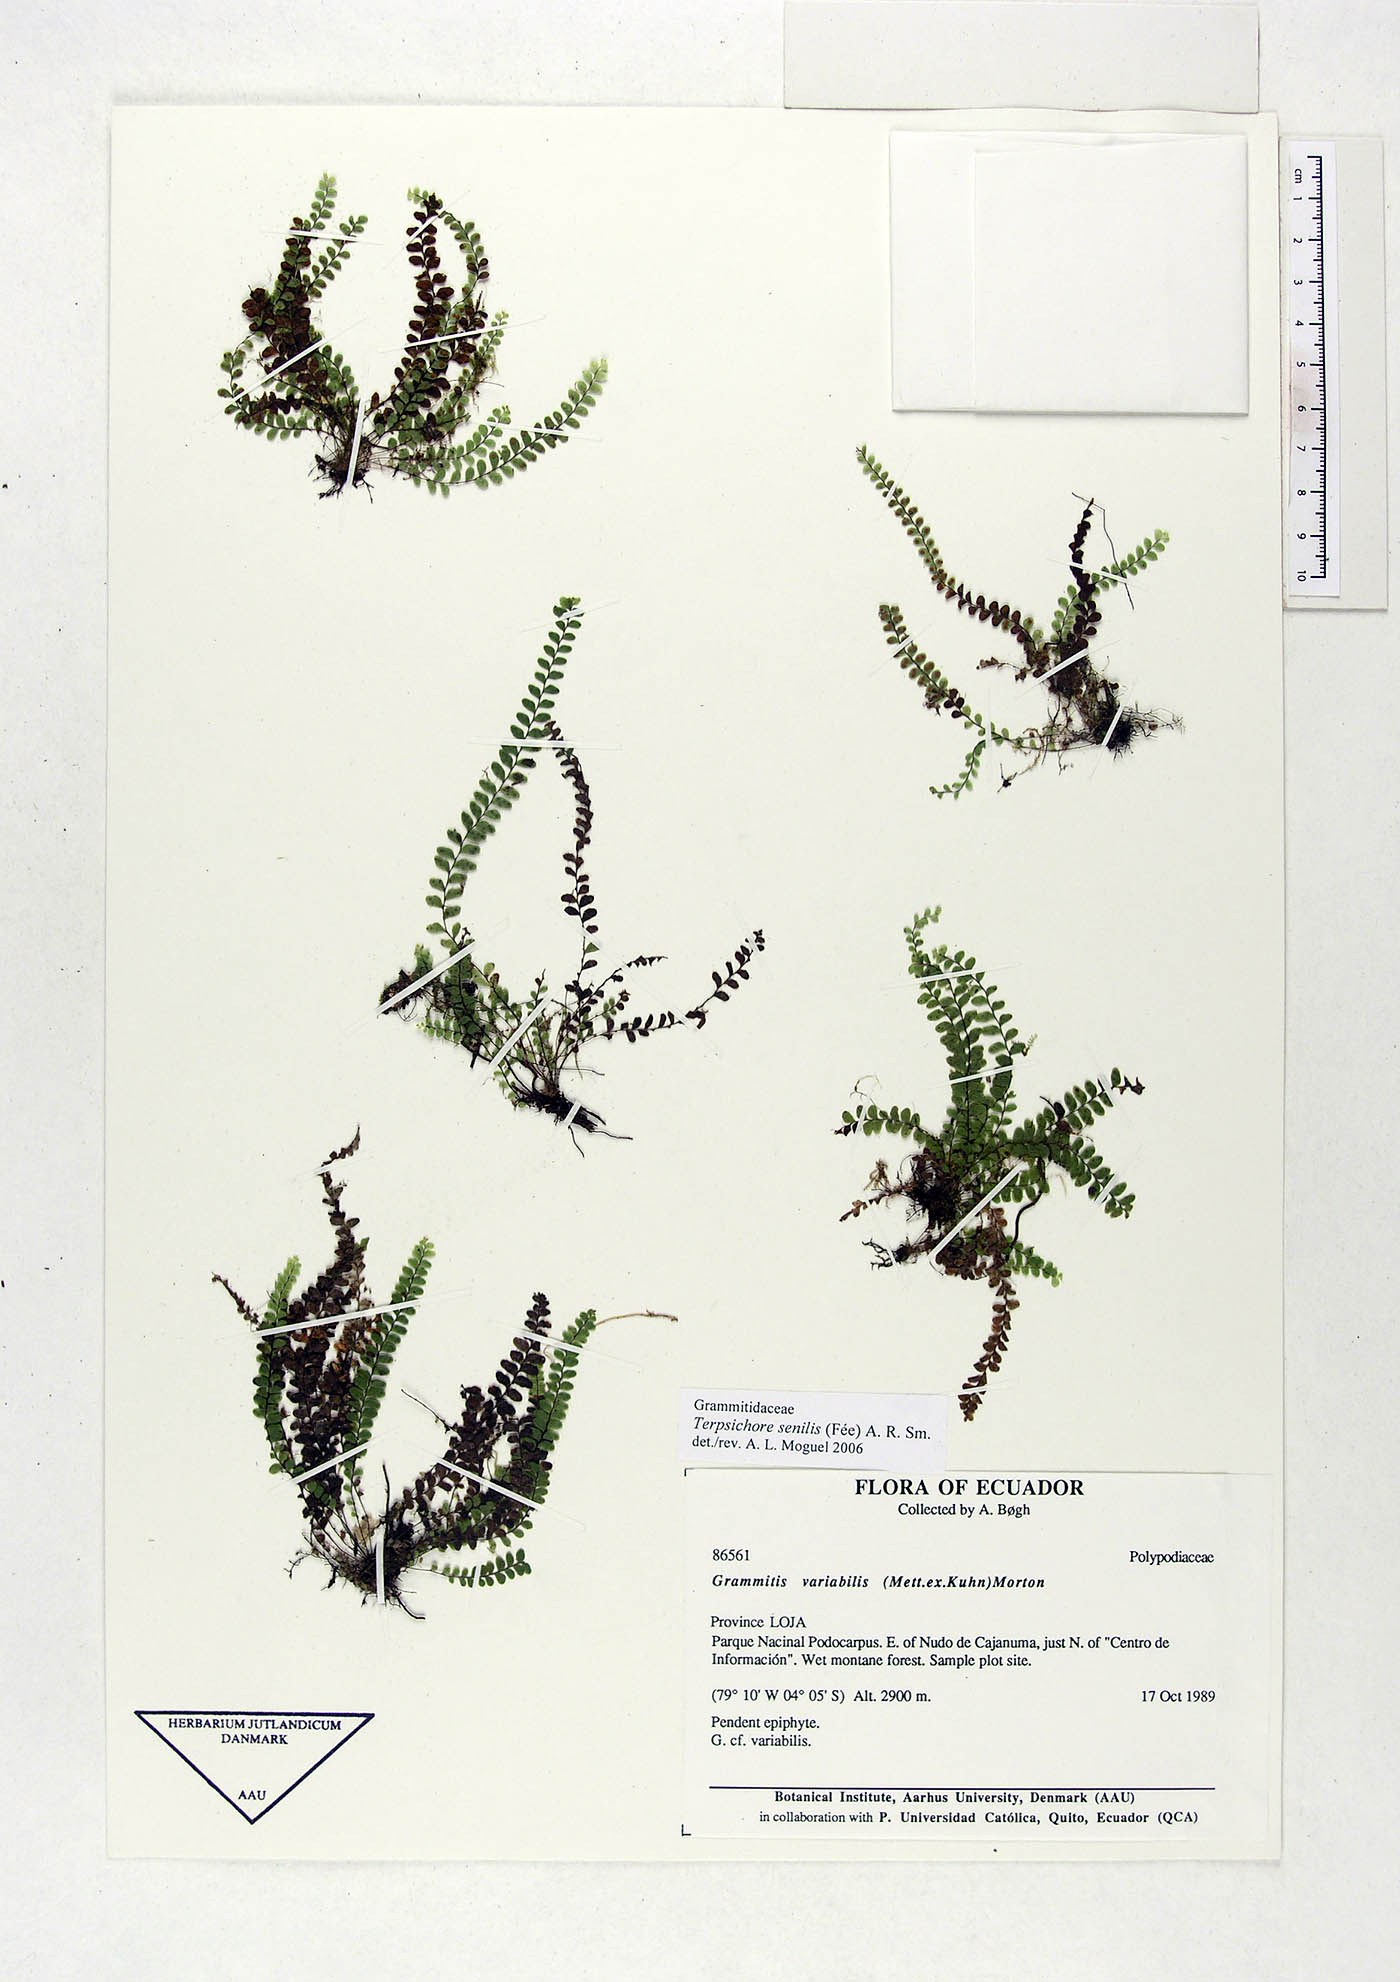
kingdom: Plantae
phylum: Tracheophyta
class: Polypodiopsida
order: Polypodiales
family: Polypodiaceae
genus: Alansmia
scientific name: Alansmia senilis
